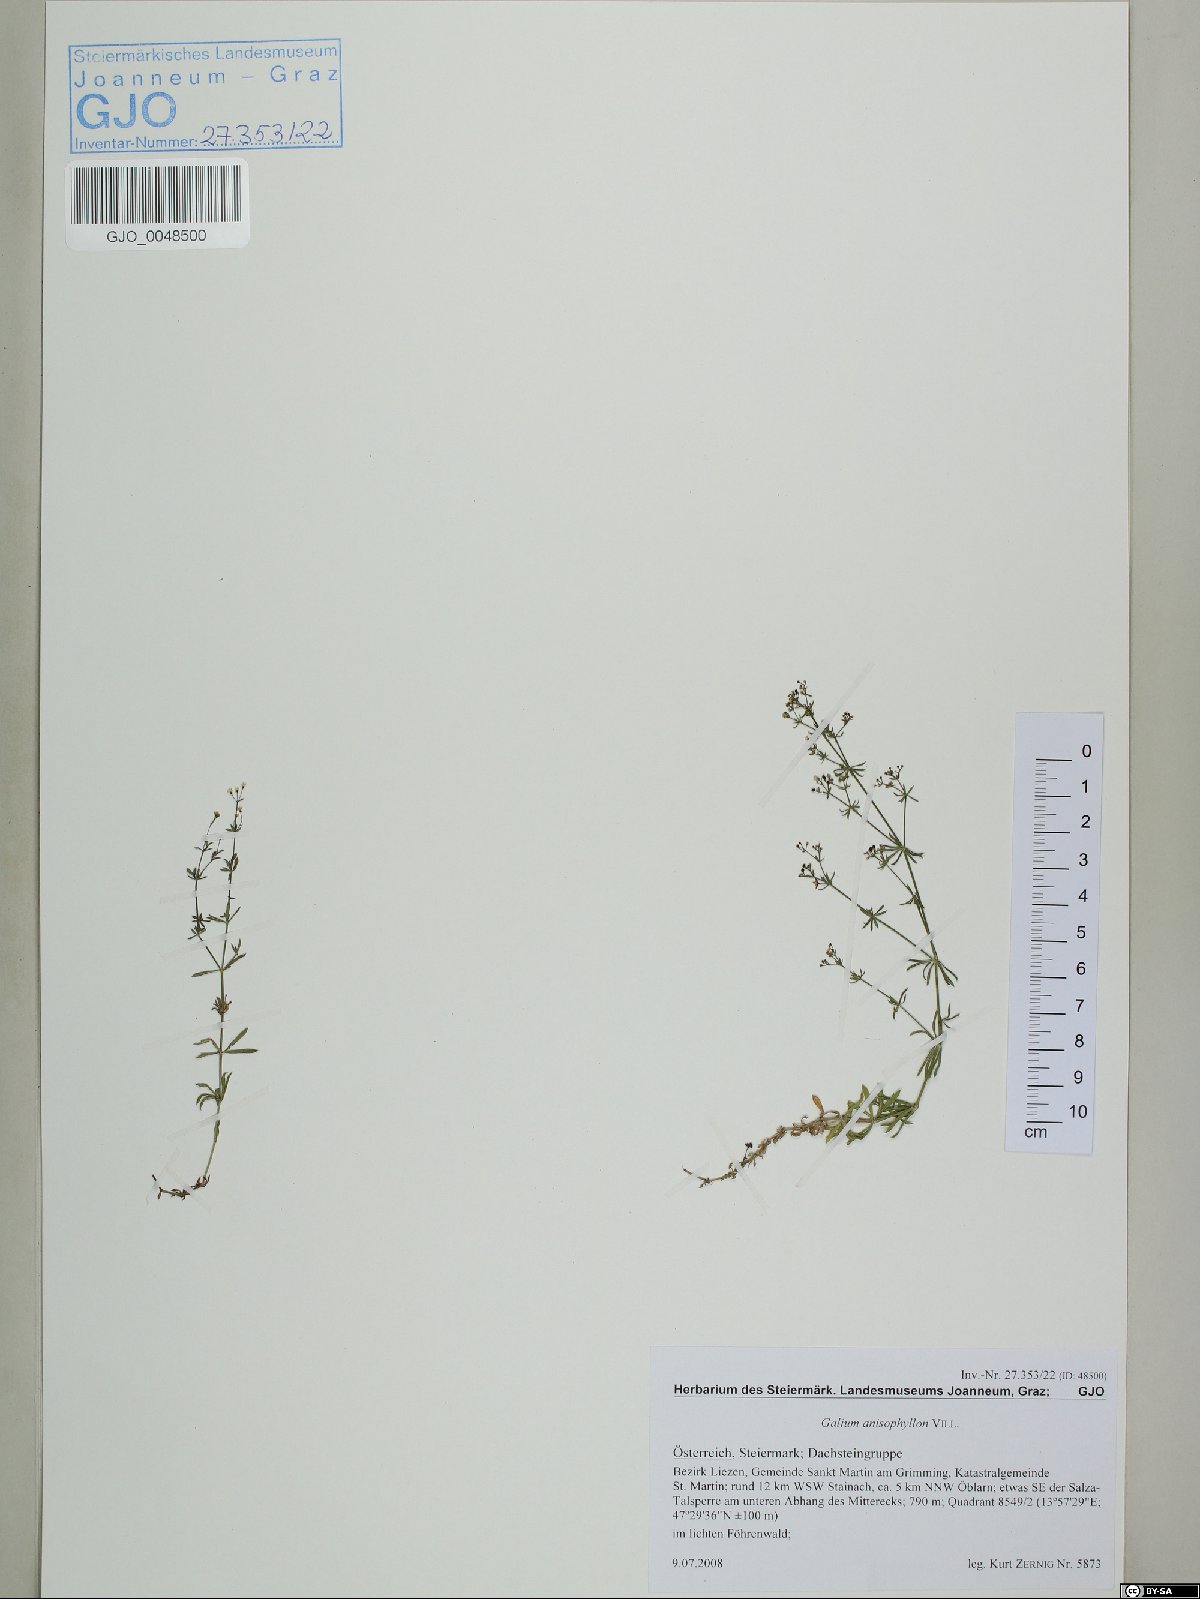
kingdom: Plantae
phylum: Tracheophyta
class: Magnoliopsida
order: Gentianales
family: Rubiaceae
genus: Galium
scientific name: Galium anisophyllon
